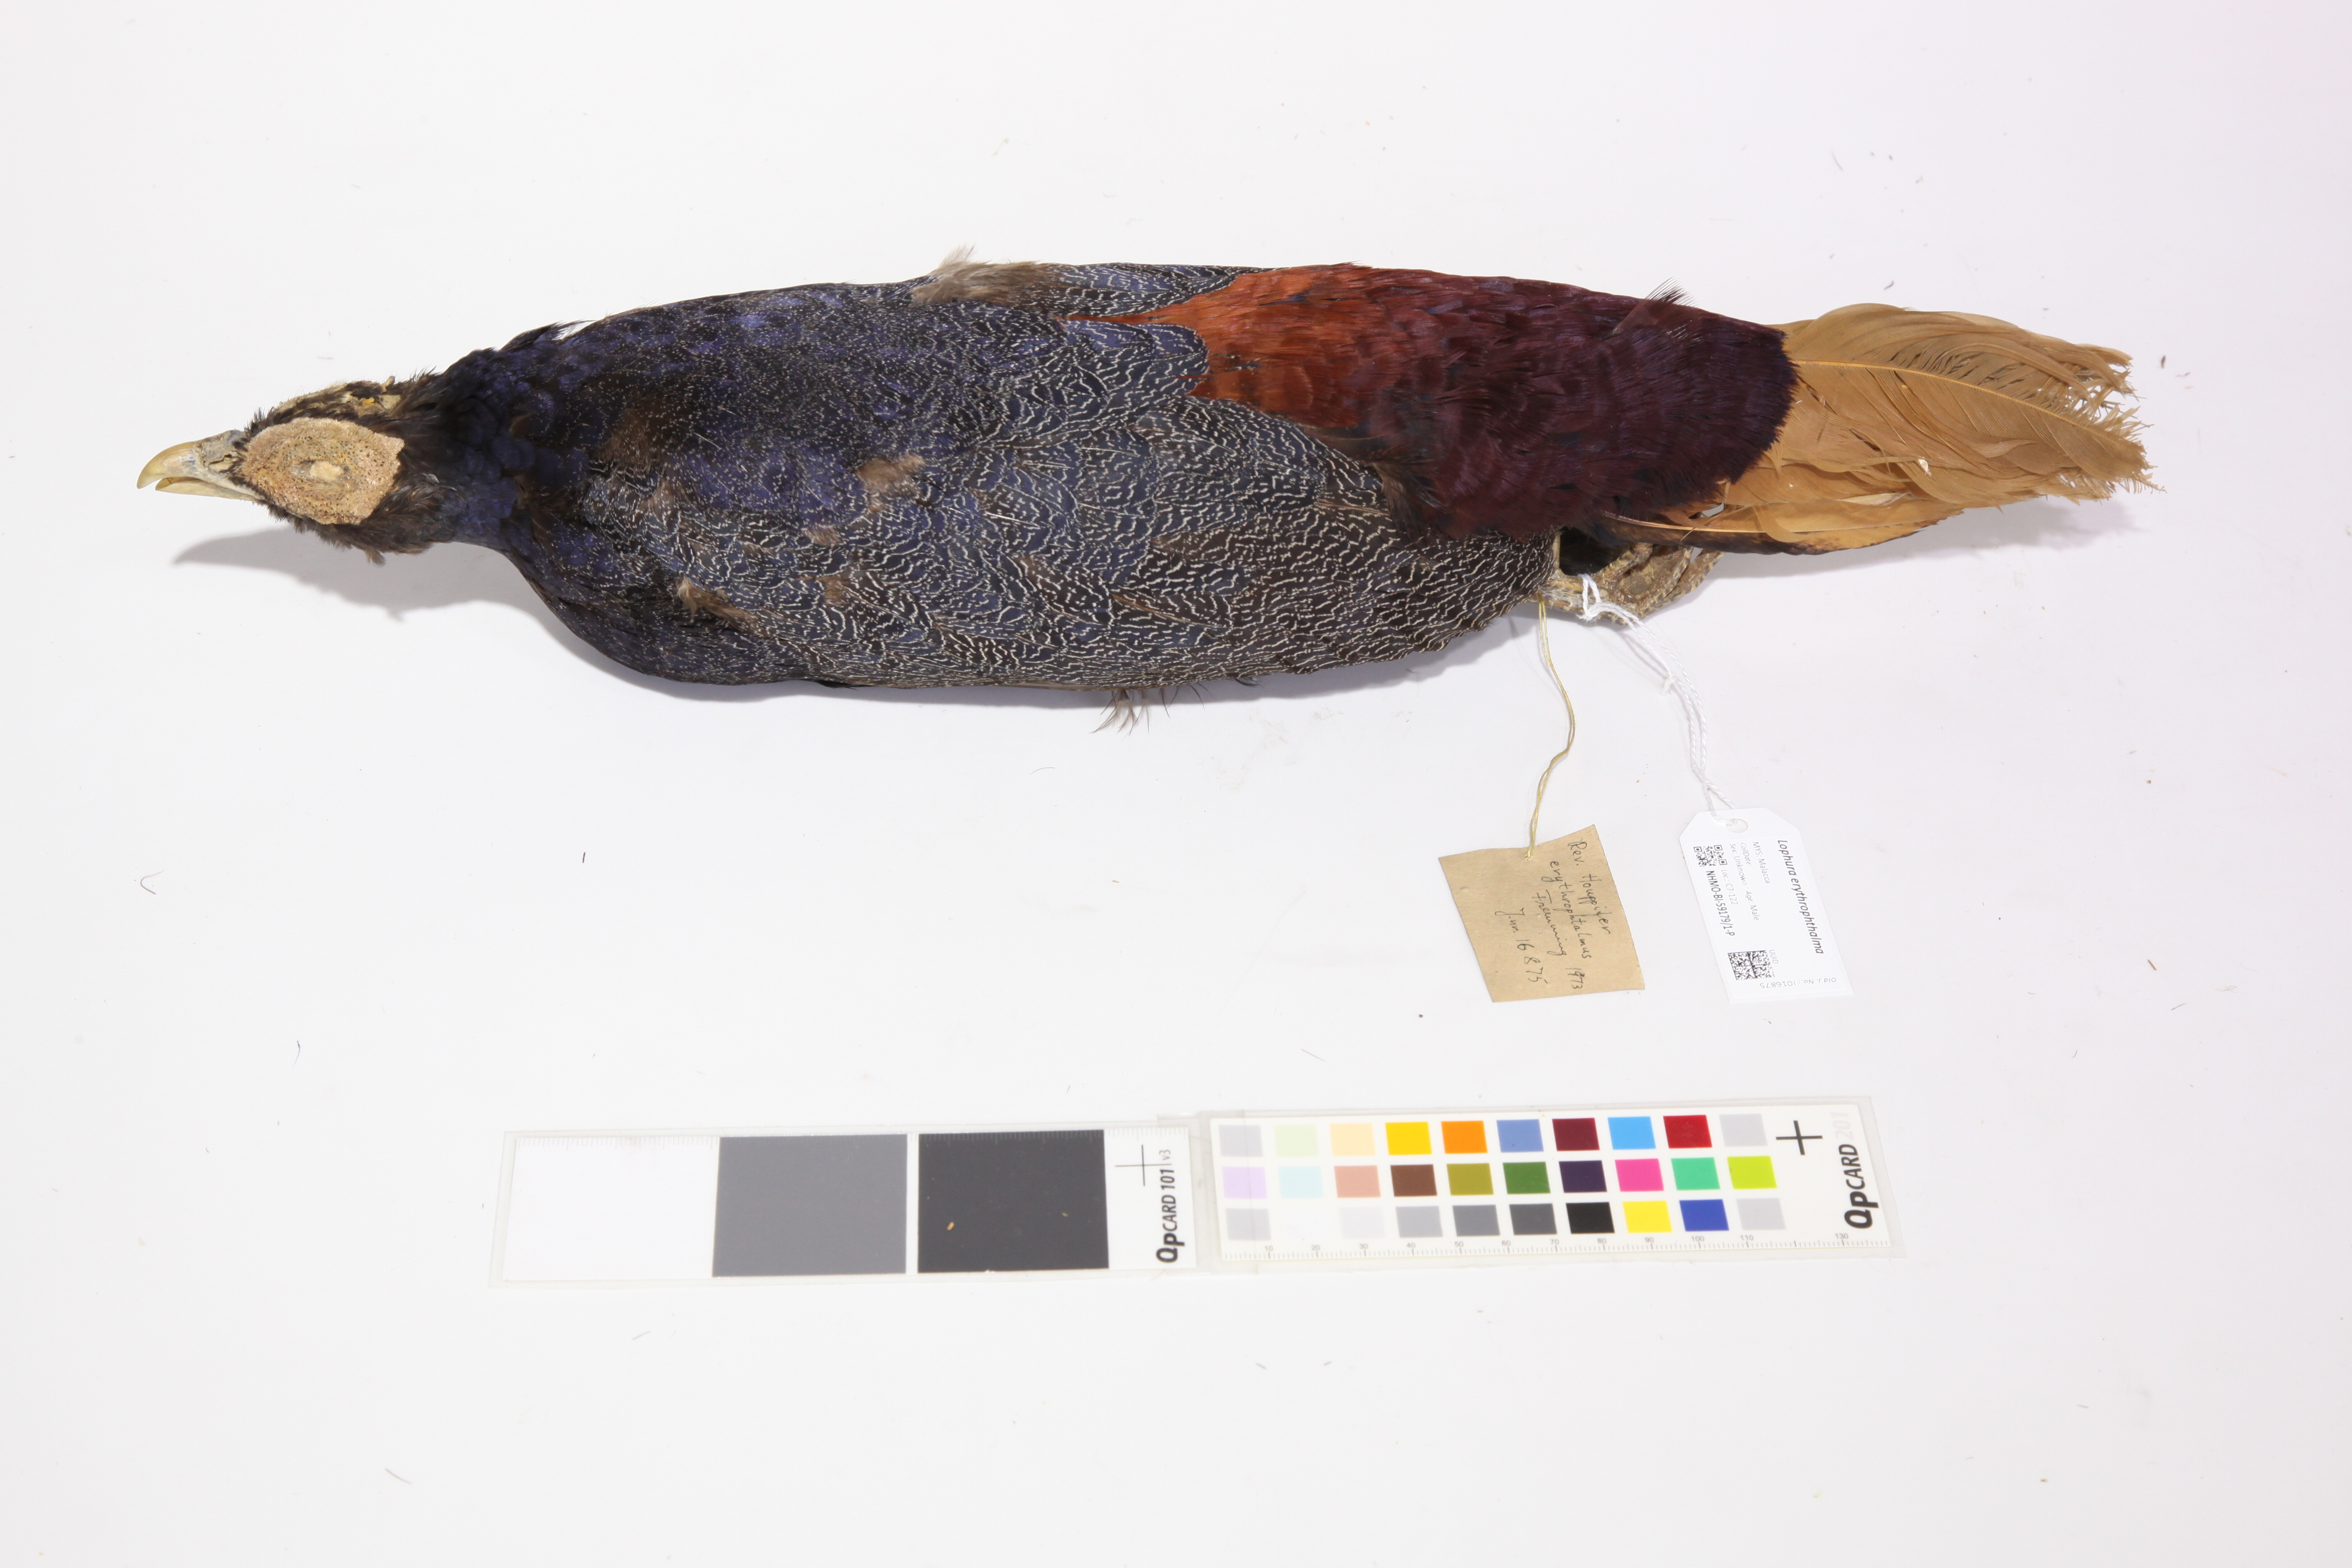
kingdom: Animalia
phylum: Chordata
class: Aves
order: Galliformes
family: Phasianidae
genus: Lophura
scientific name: Lophura erythrophthalma
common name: Crestless fireback
